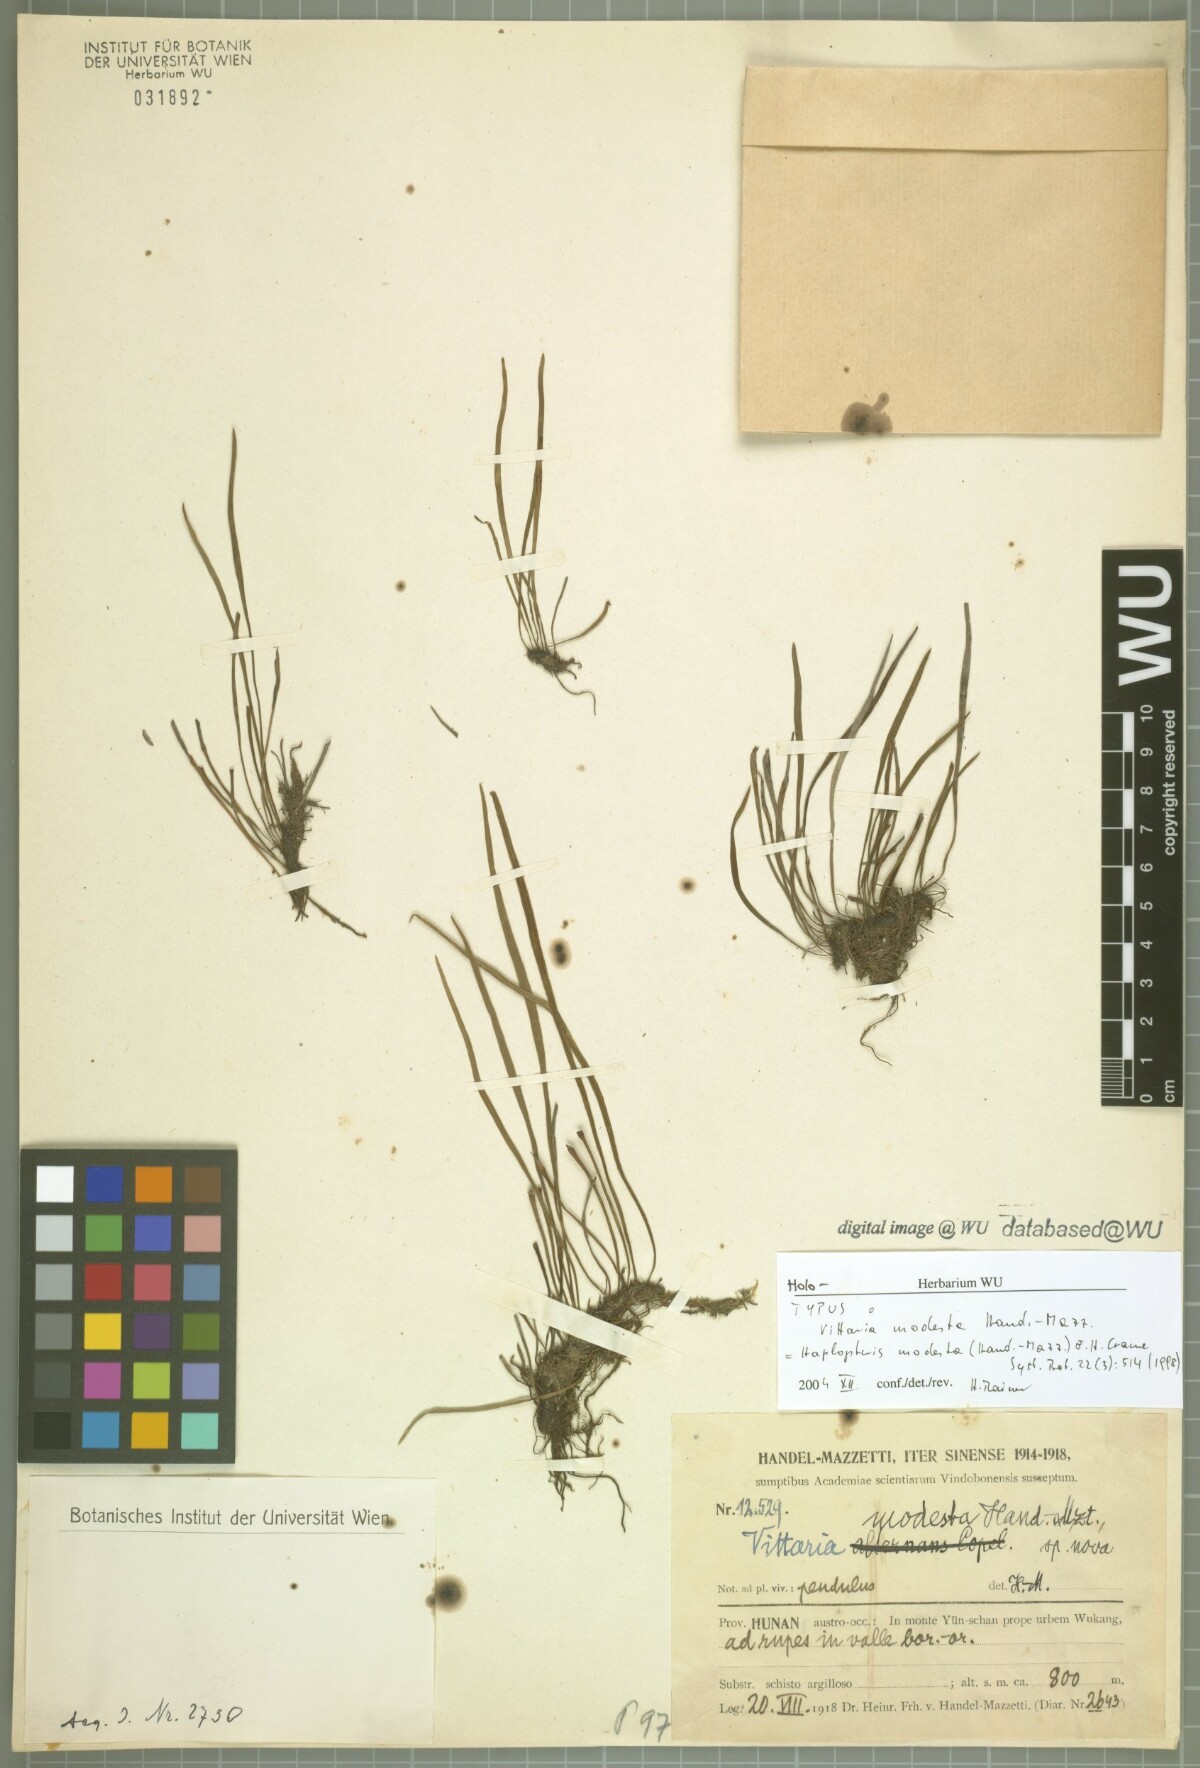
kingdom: Plantae
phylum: Tracheophyta
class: Polypodiopsida
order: Polypodiales
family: Pteridaceae
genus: Haplopteris
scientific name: Haplopteris flexuosa
